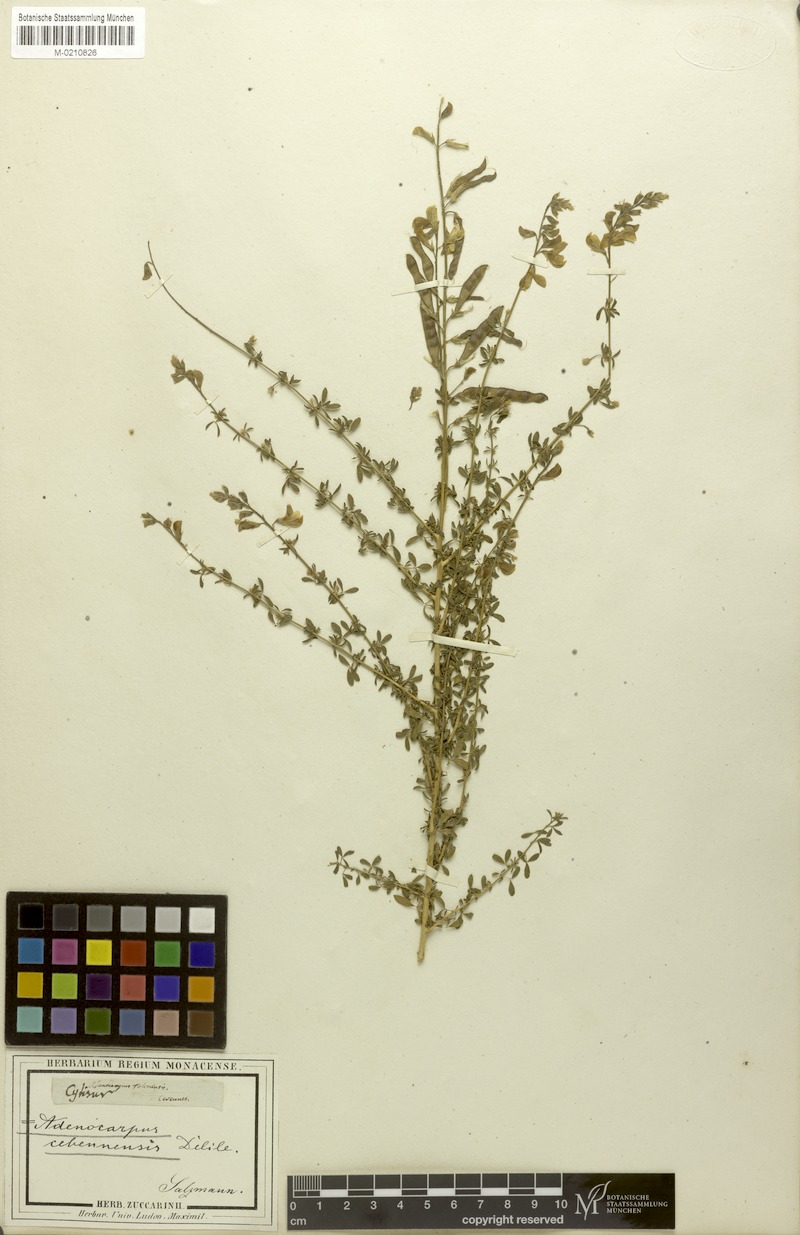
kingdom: Plantae
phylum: Tracheophyta
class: Magnoliopsida
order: Fabales
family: Fabaceae
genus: Adenocarpus
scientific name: Adenocarpus complicatus
